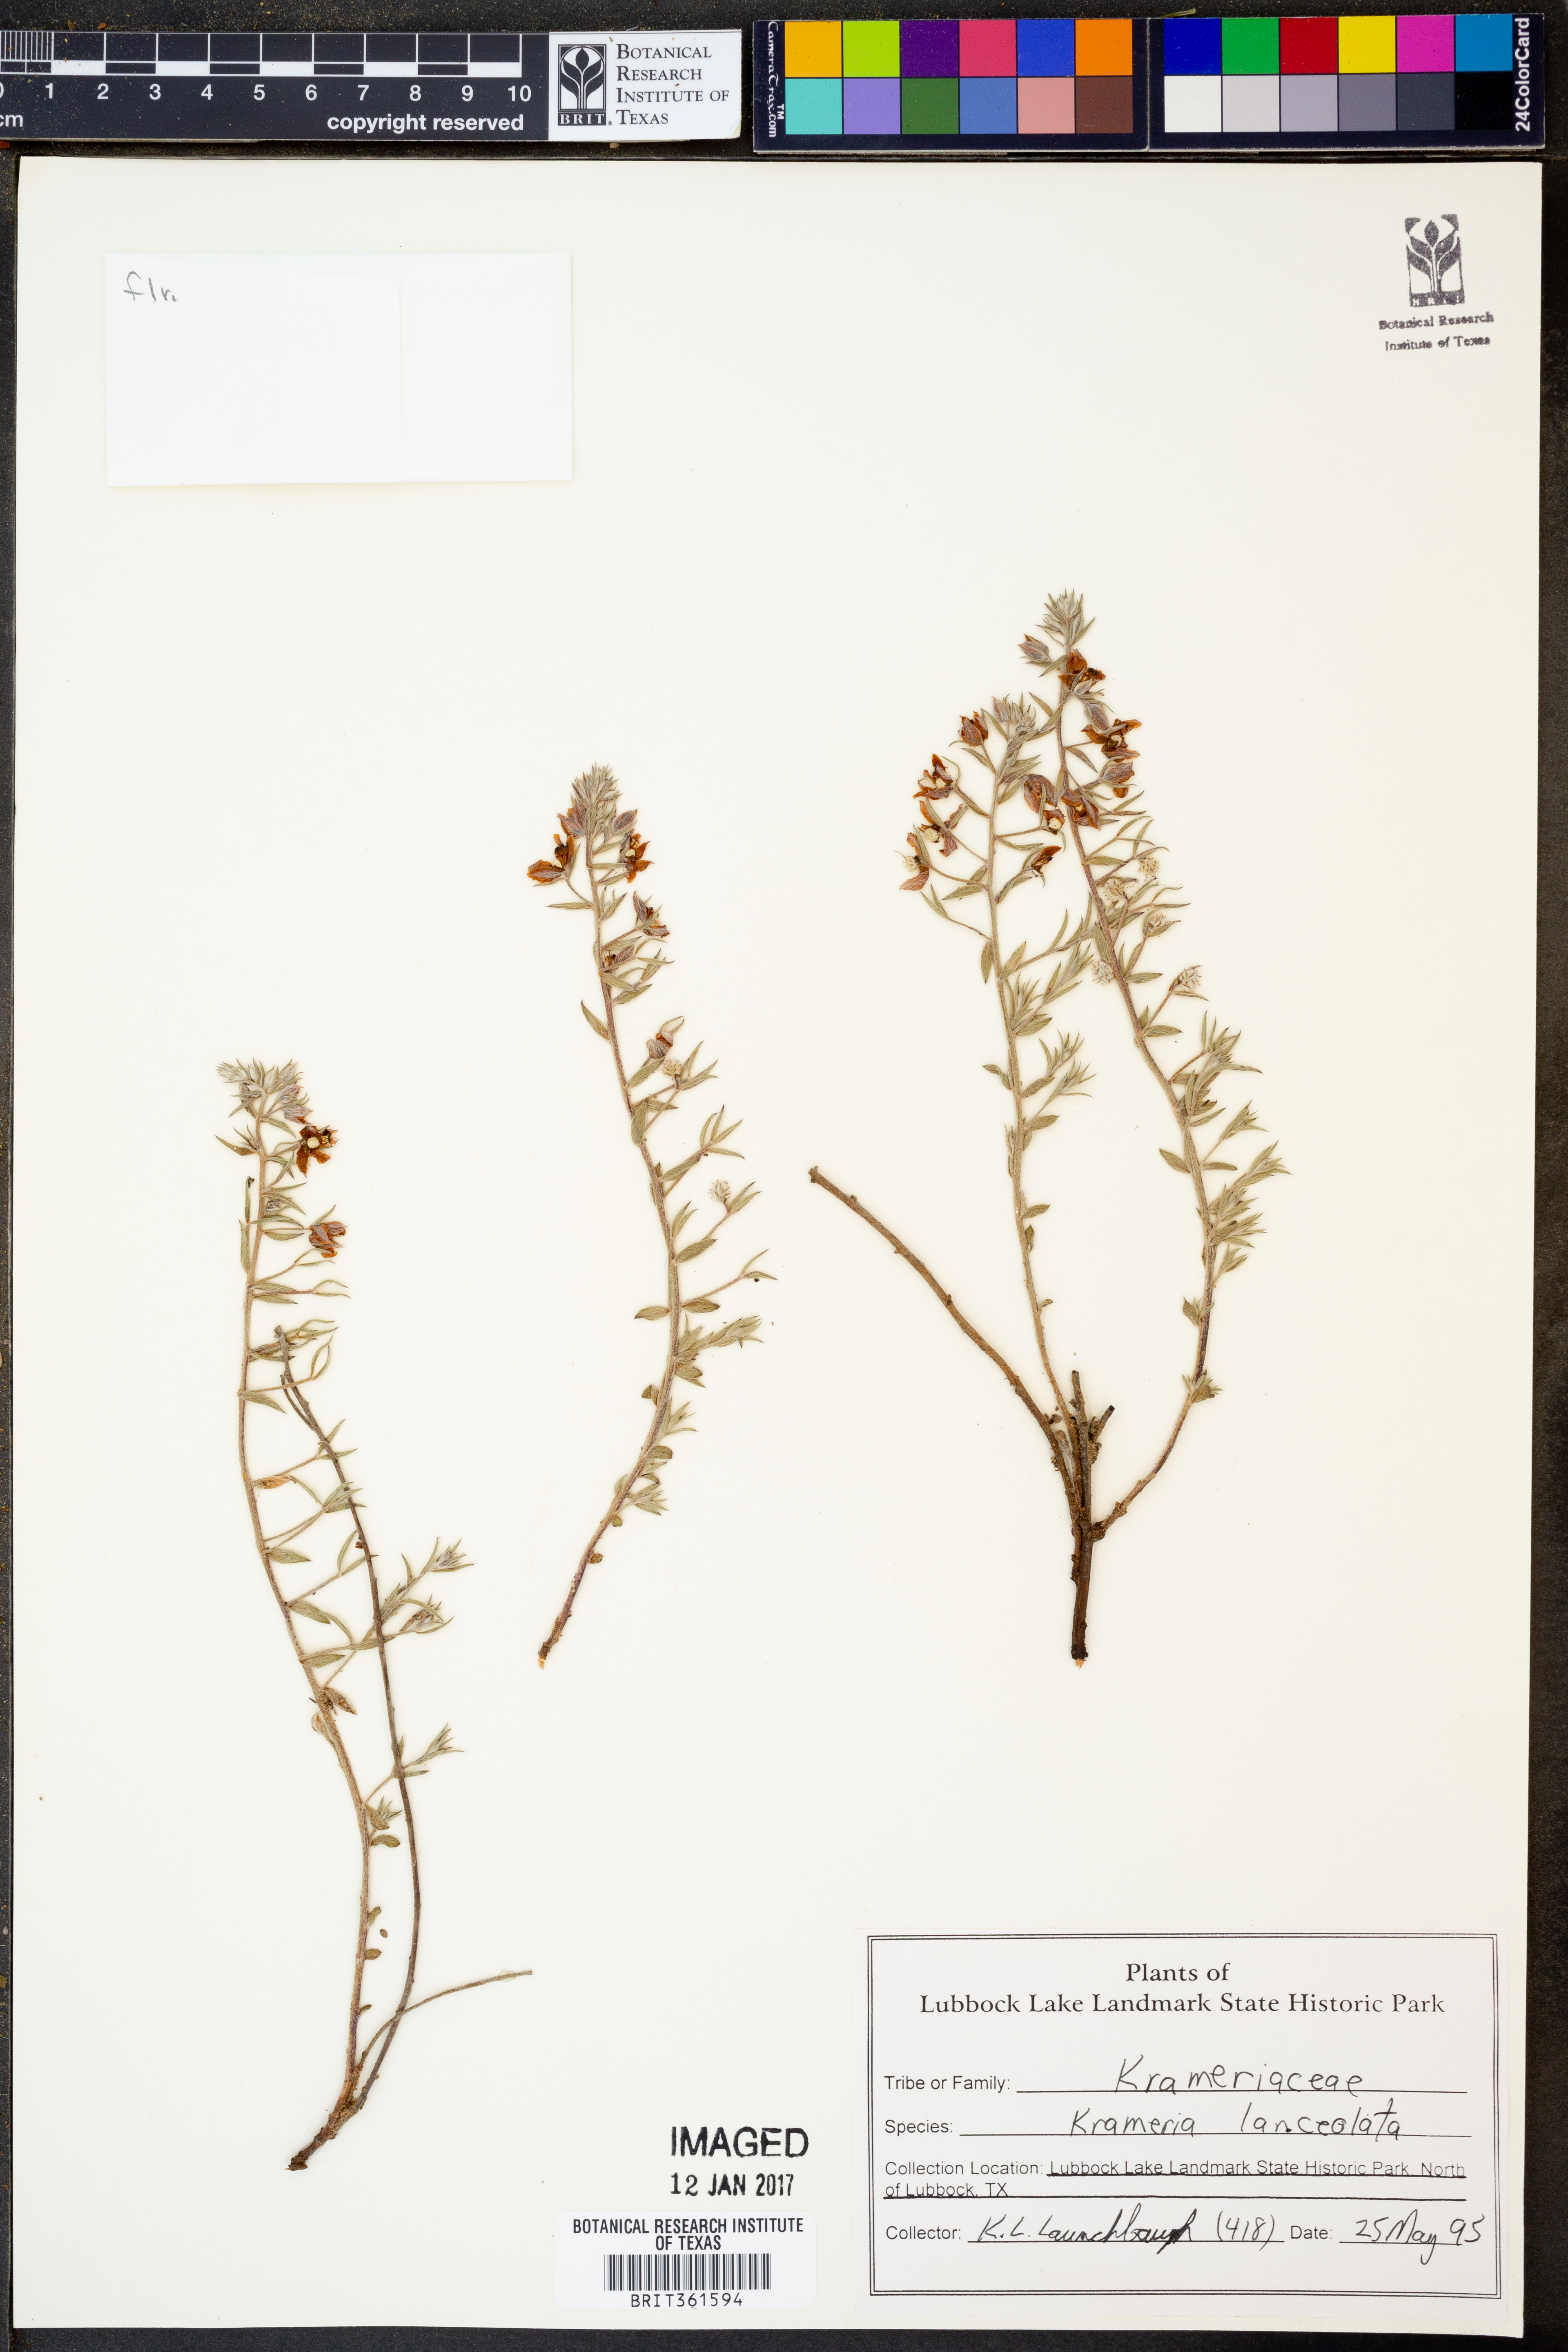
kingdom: Plantae
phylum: Tracheophyta
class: Magnoliopsida
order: Zygophyllales
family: Krameriaceae
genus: Krameria
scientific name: Krameria lanceolata
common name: Ratany
